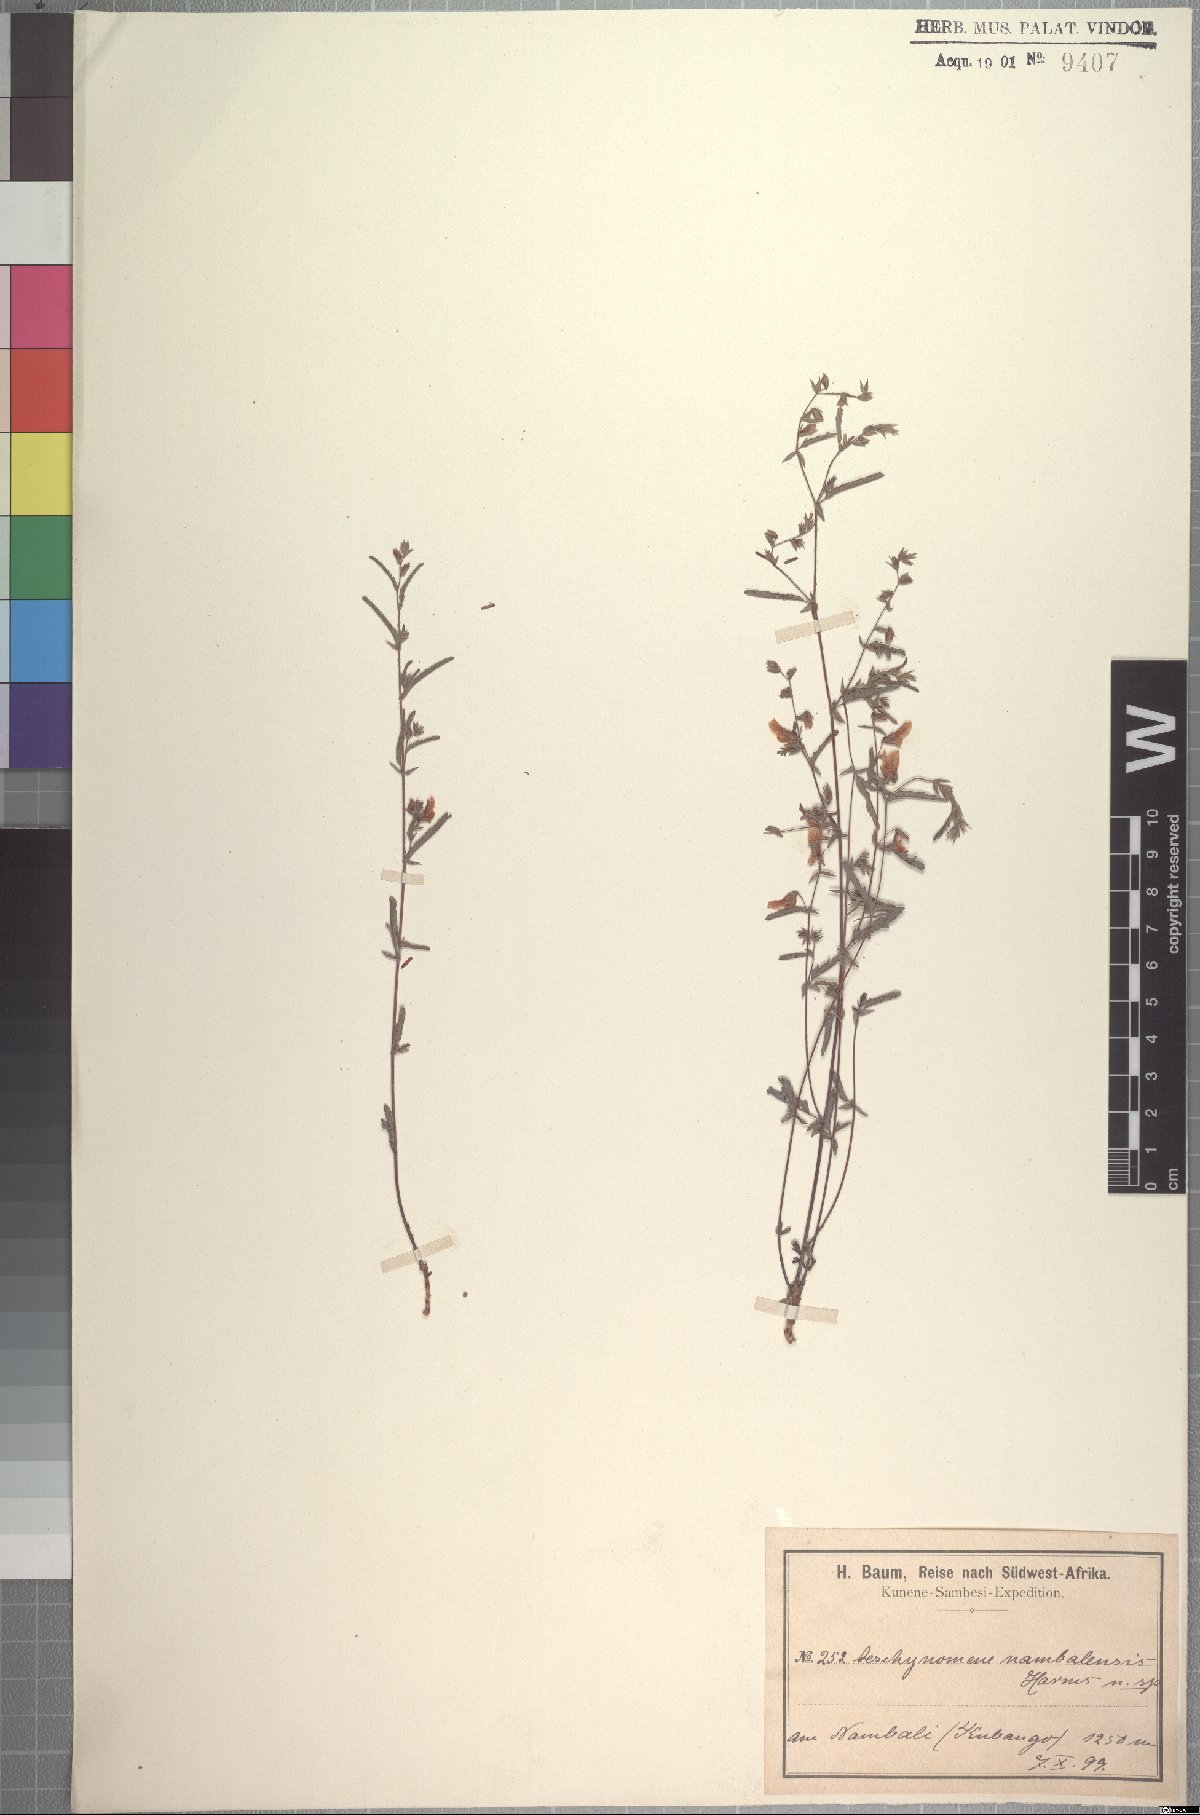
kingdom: Plantae
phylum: Tracheophyta
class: Magnoliopsida
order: Fabales
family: Fabaceae
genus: Aeschynomene
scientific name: Aeschynomene bracteosa
